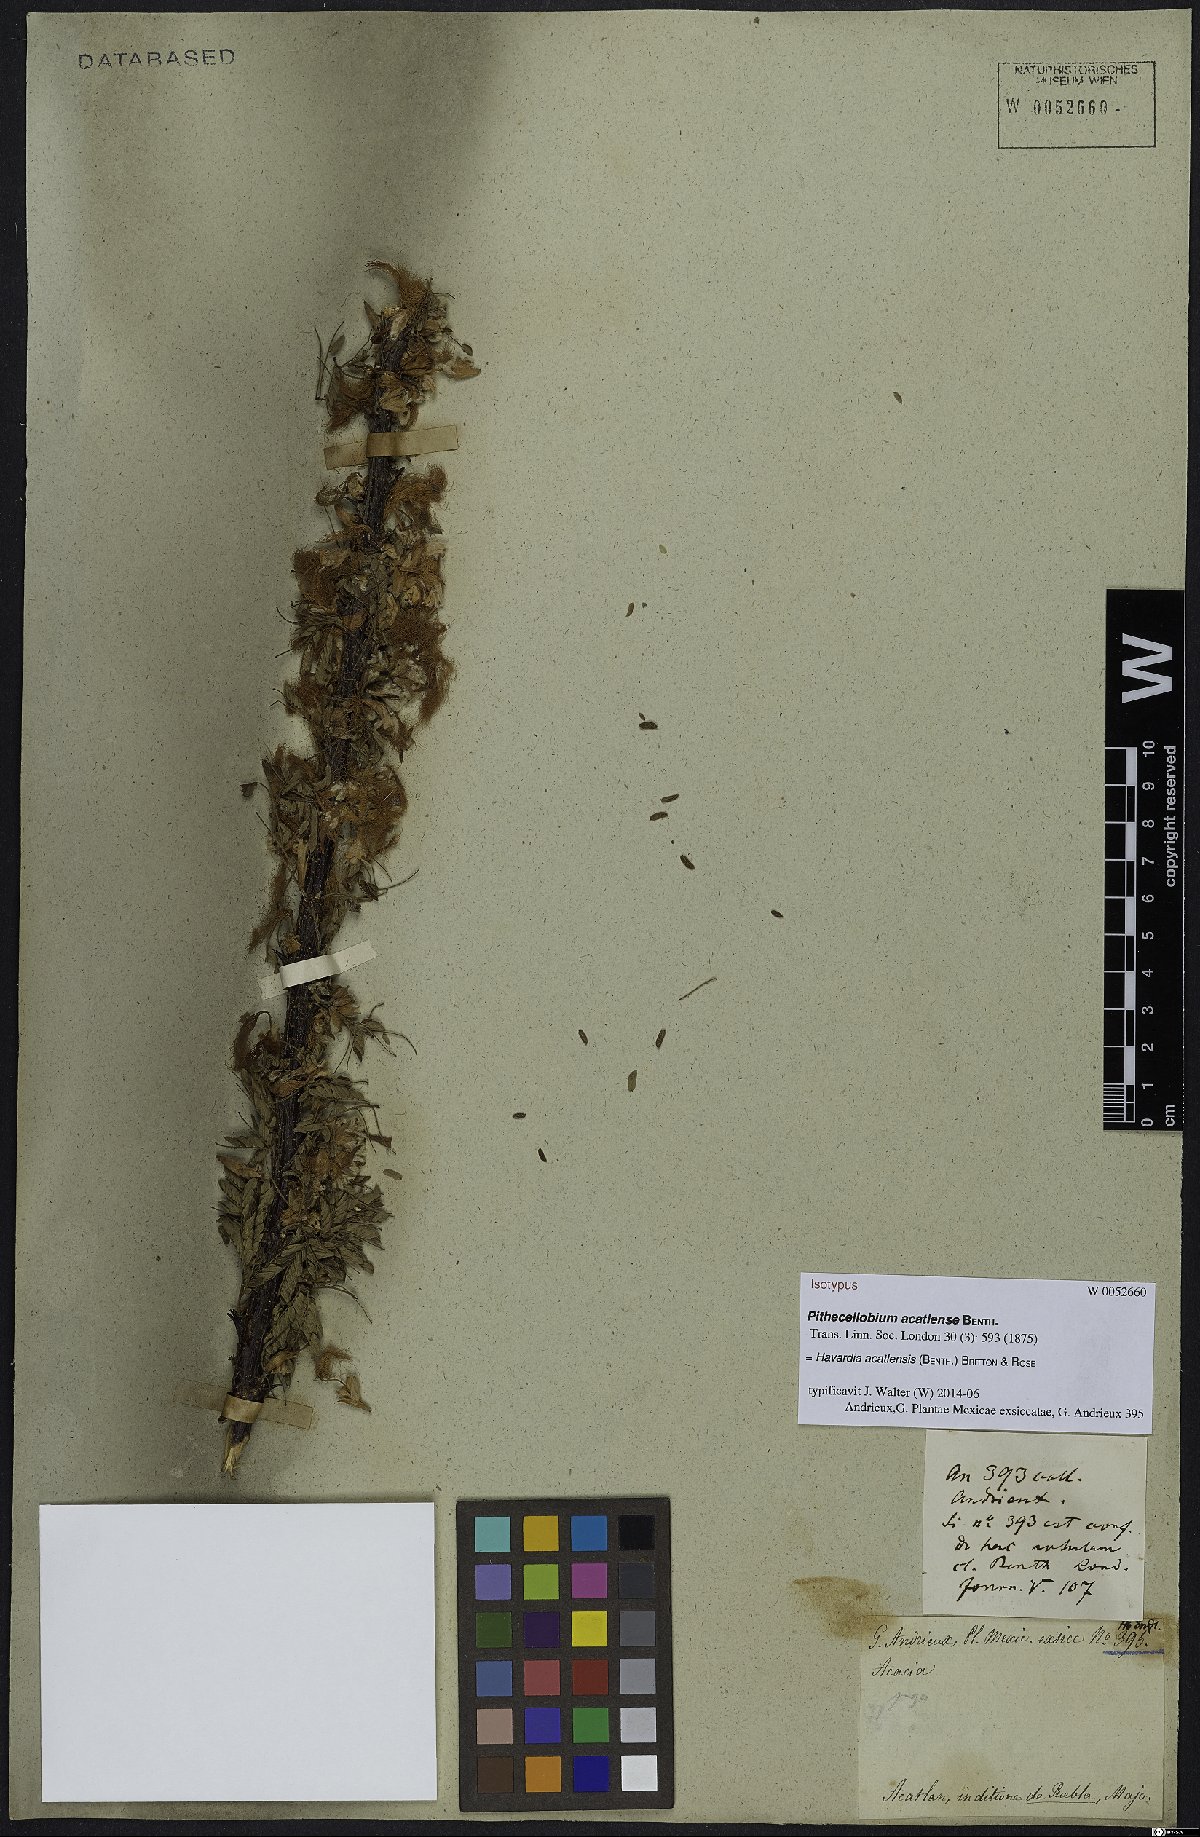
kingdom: Plantae
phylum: Tracheophyta
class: Magnoliopsida
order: Fabales
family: Fabaceae
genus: Havardia
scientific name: Havardia acatlensis
